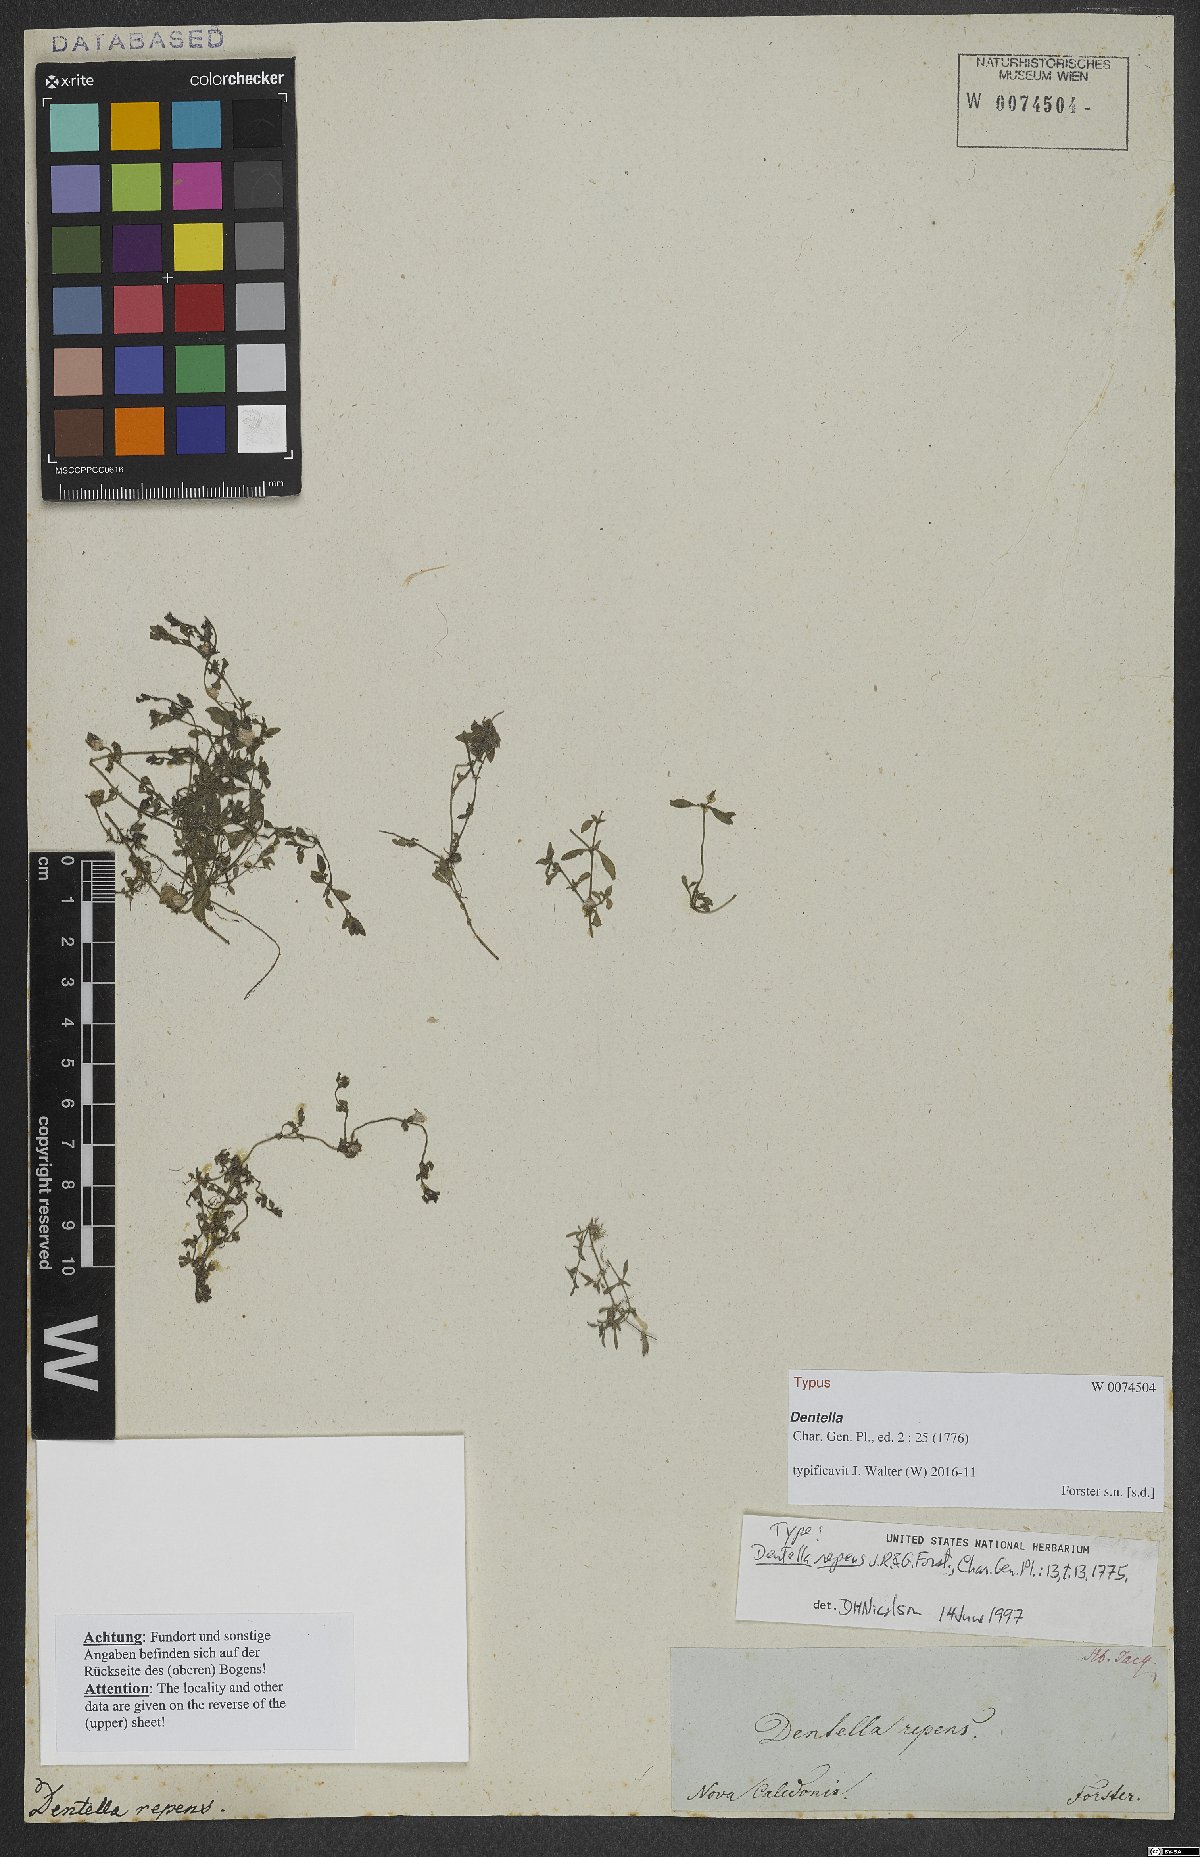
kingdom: Plantae
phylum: Tracheophyta
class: Magnoliopsida
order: Gentianales
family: Rubiaceae
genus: Dentella
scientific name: Dentella repens
